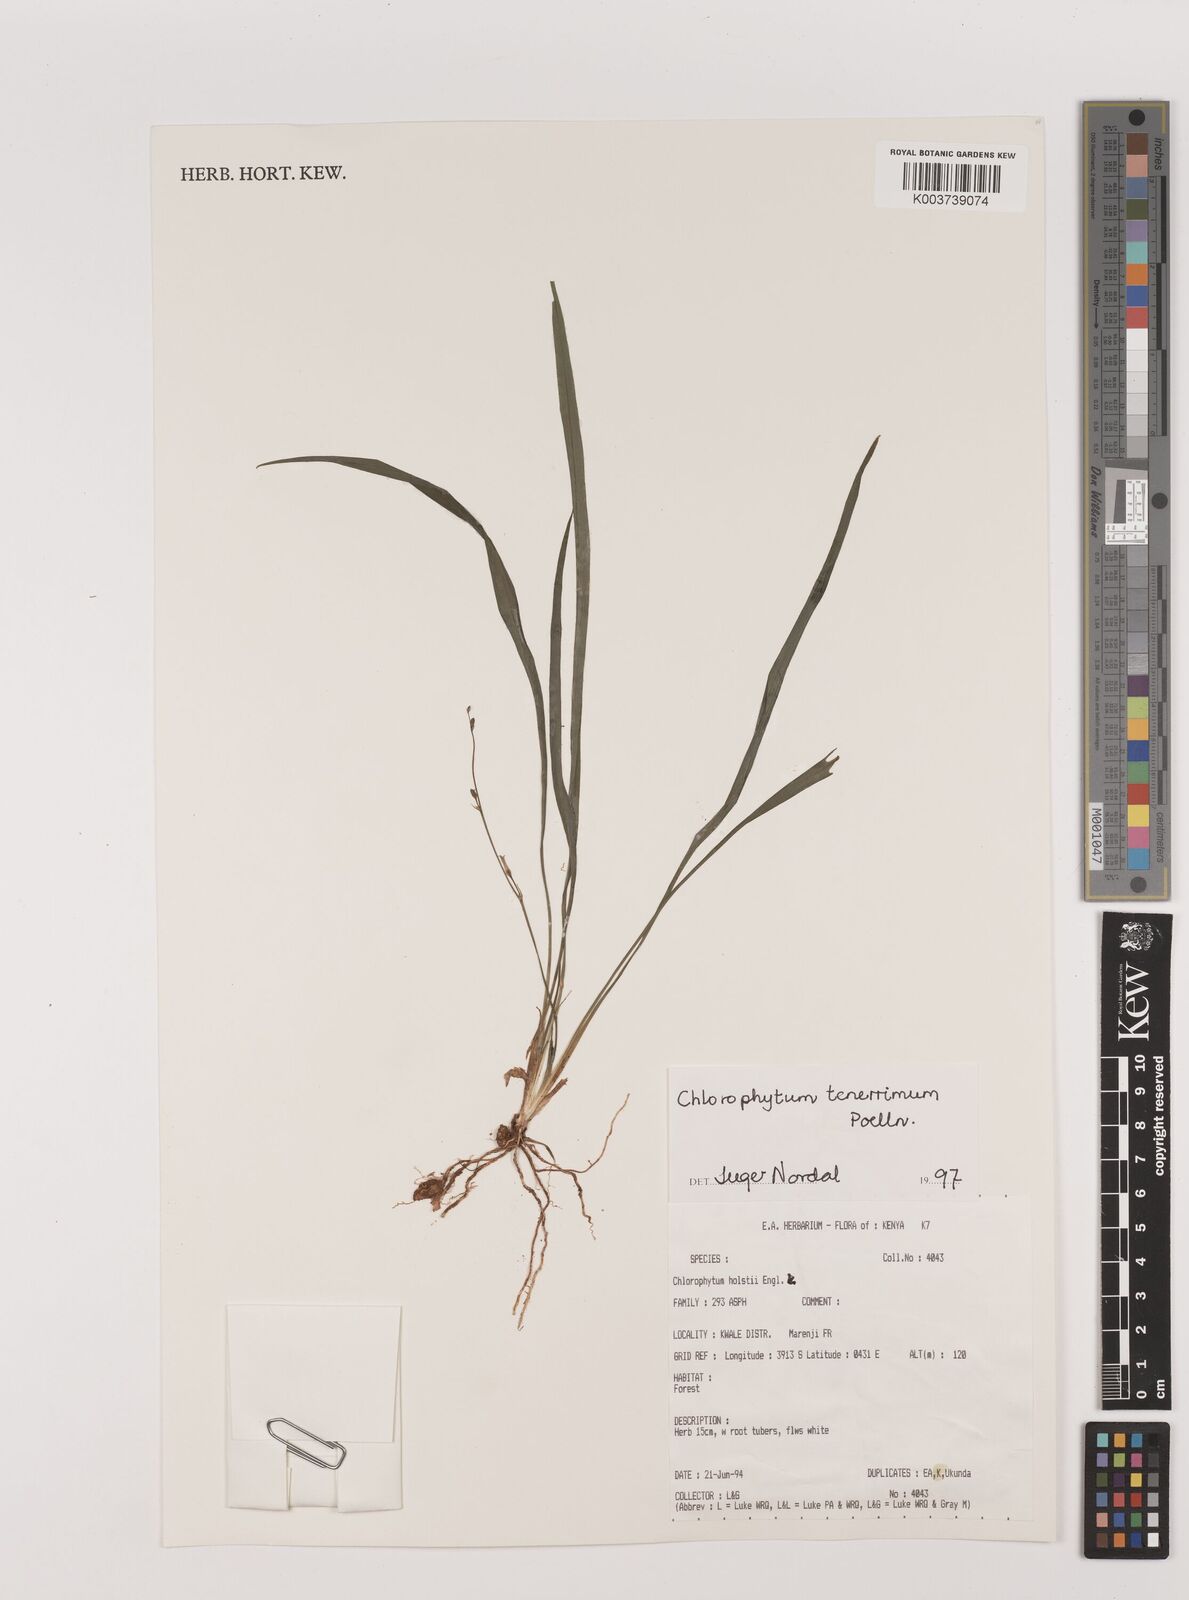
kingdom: Plantae
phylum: Tracheophyta
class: Liliopsida
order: Asparagales
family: Asparagaceae
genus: Chlorophytum
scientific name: Chlorophytum tenerrimum
